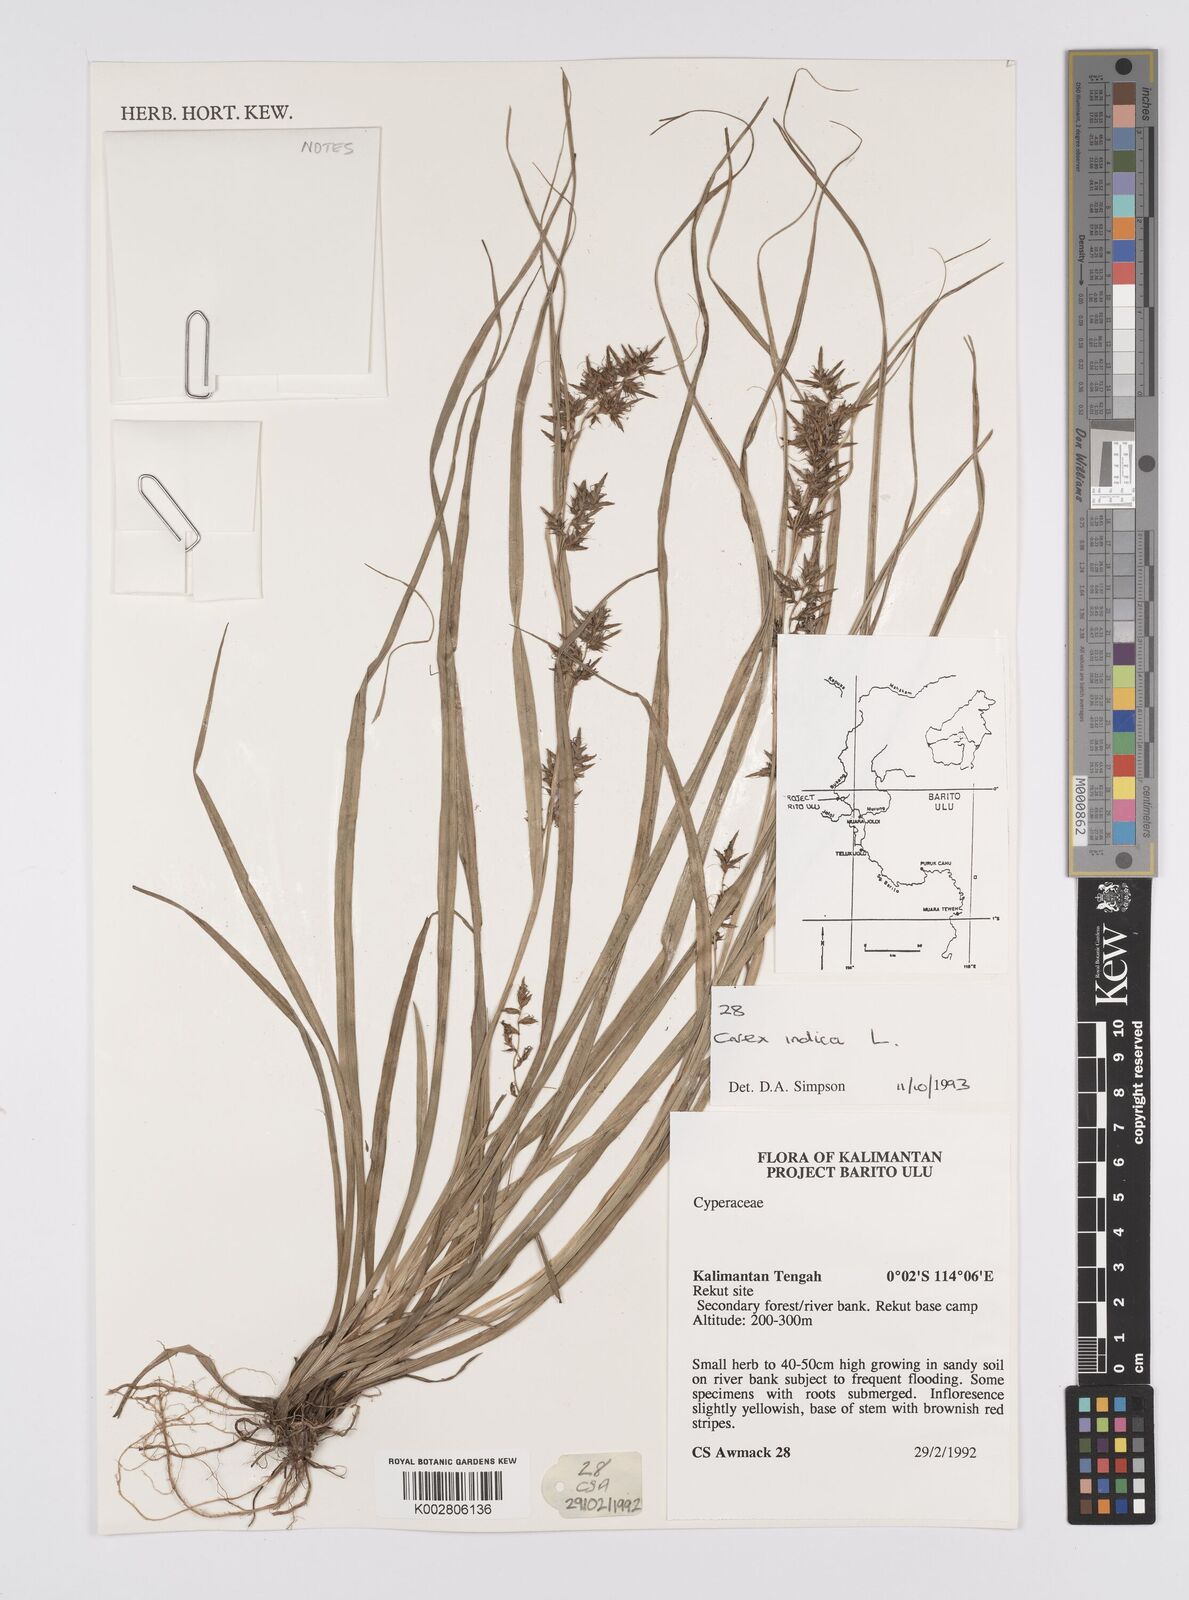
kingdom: Plantae
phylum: Tracheophyta
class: Liliopsida
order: Poales
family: Cyperaceae
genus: Carex
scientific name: Carex indica
